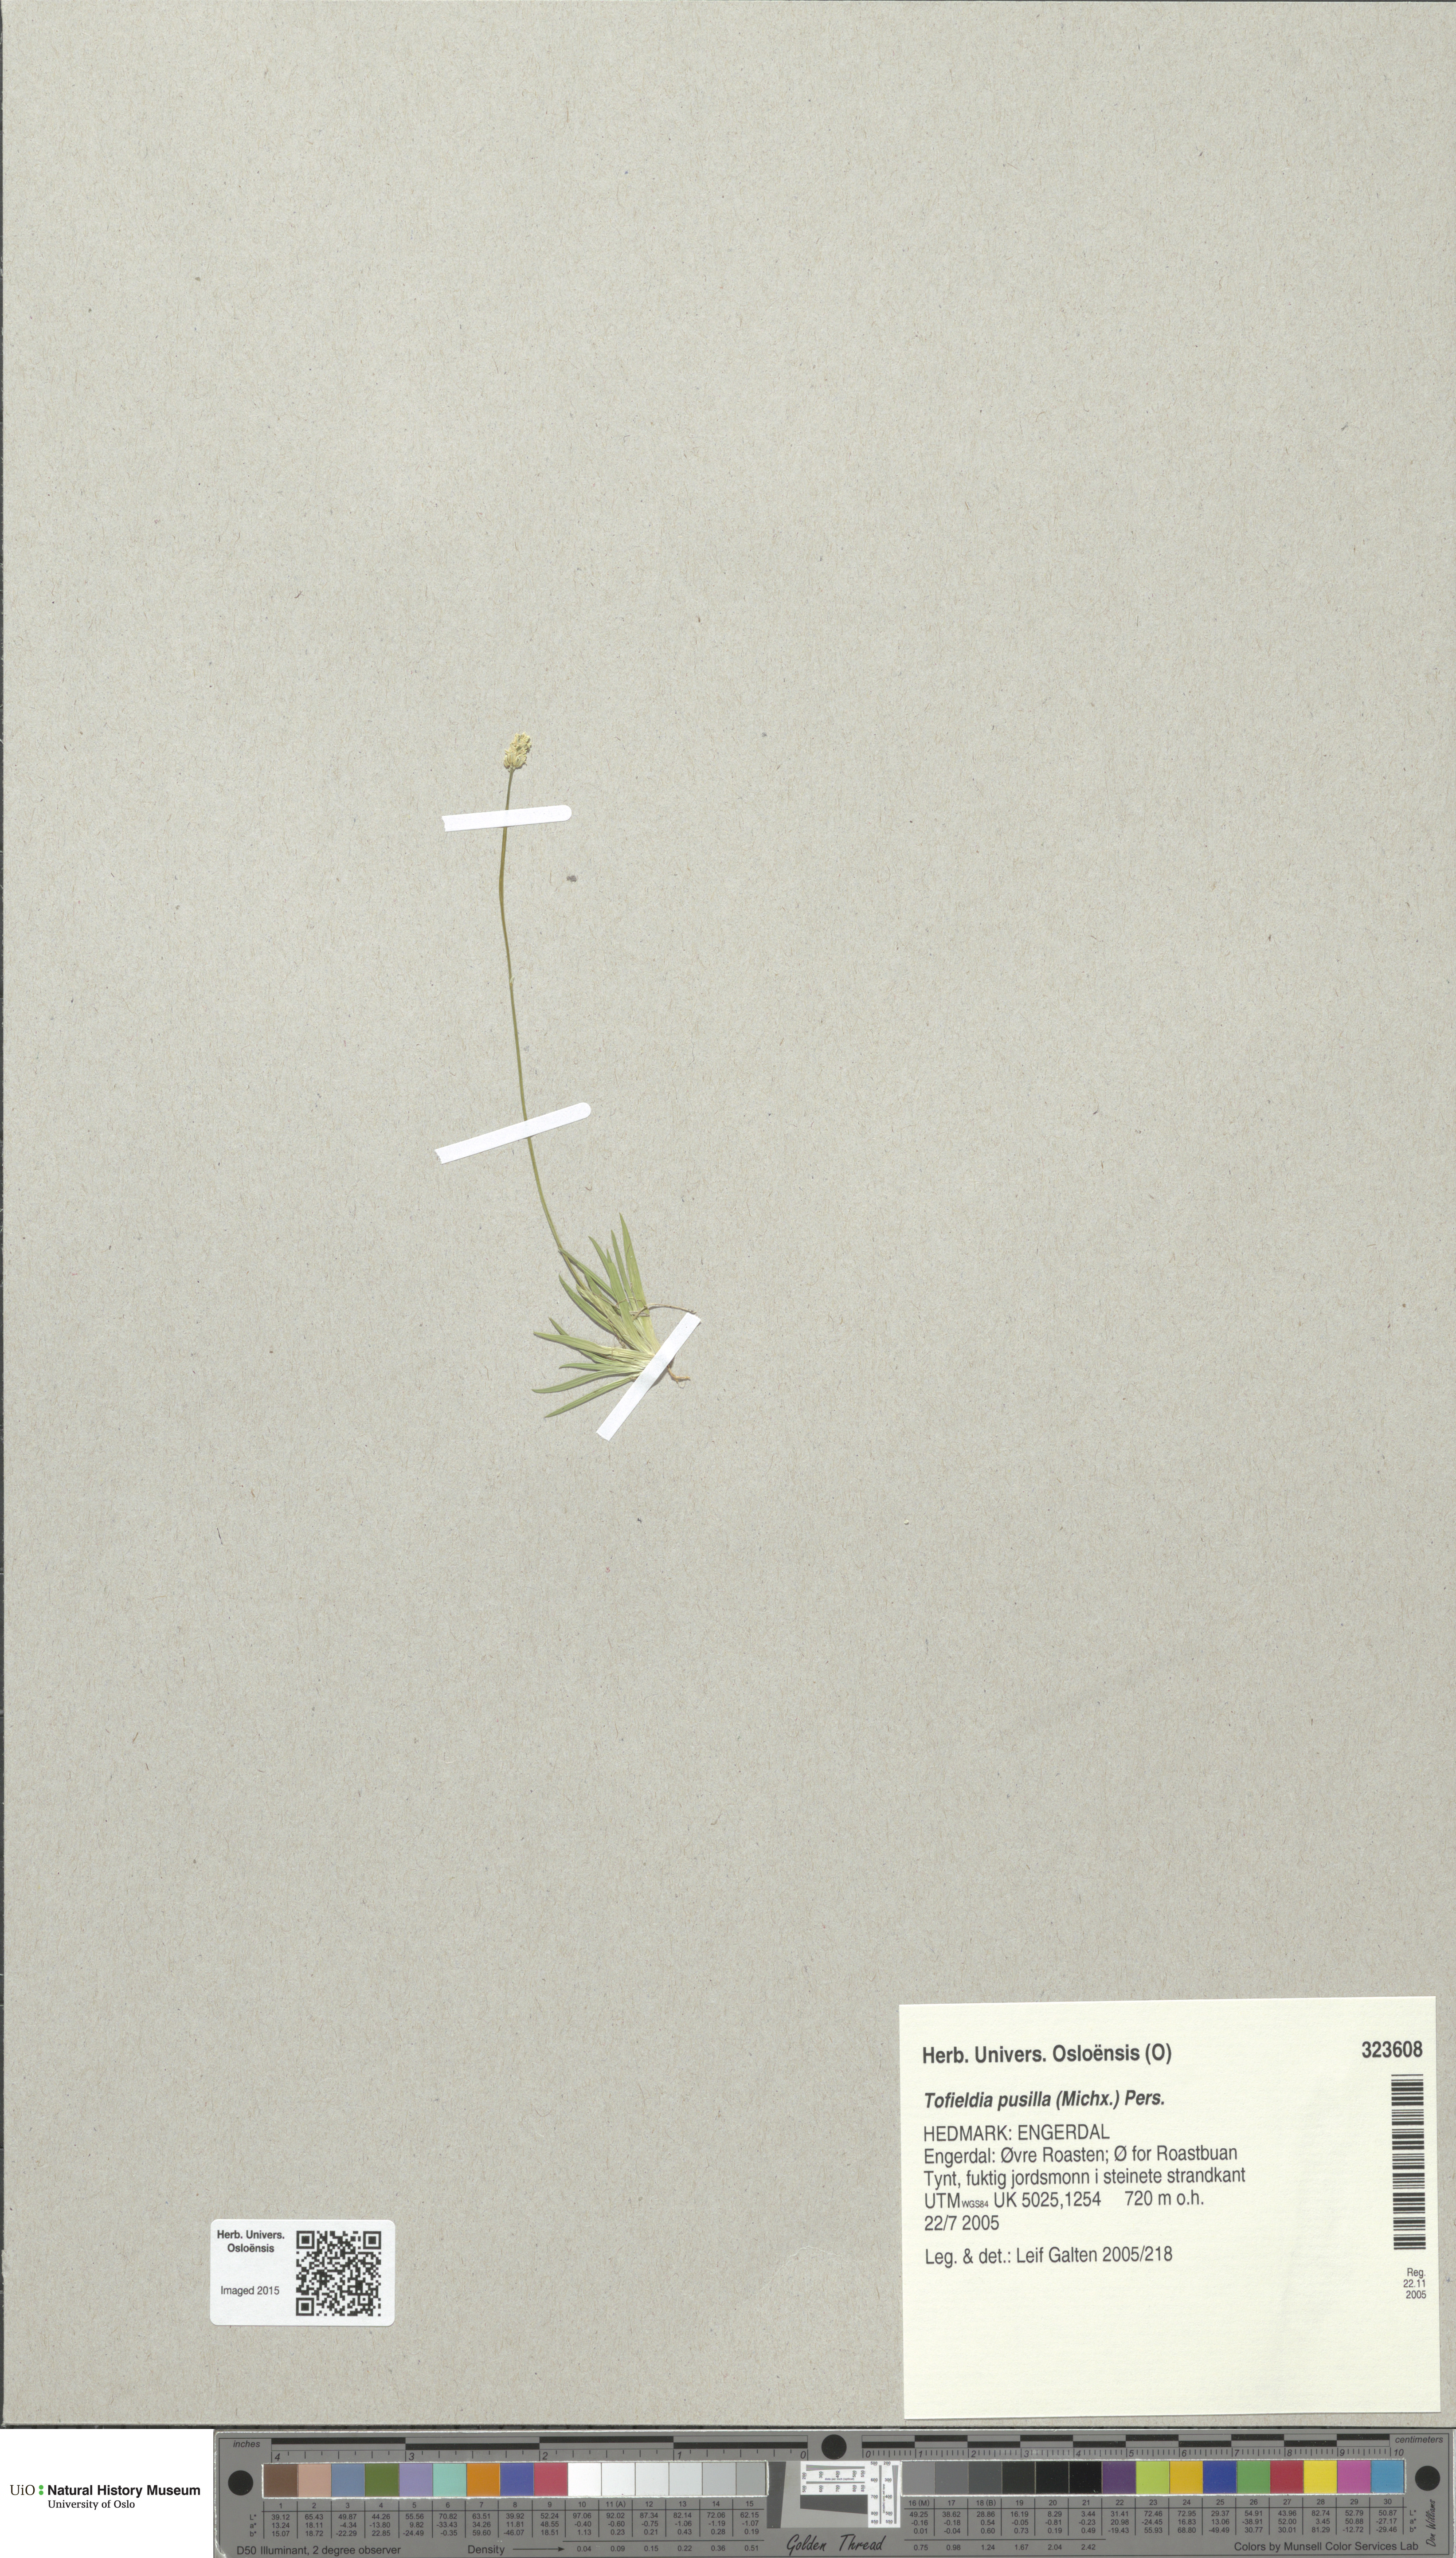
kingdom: Plantae
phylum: Tracheophyta
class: Liliopsida
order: Alismatales
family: Tofieldiaceae
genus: Tofieldia
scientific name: Tofieldia pusilla
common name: Scottish false asphodel
